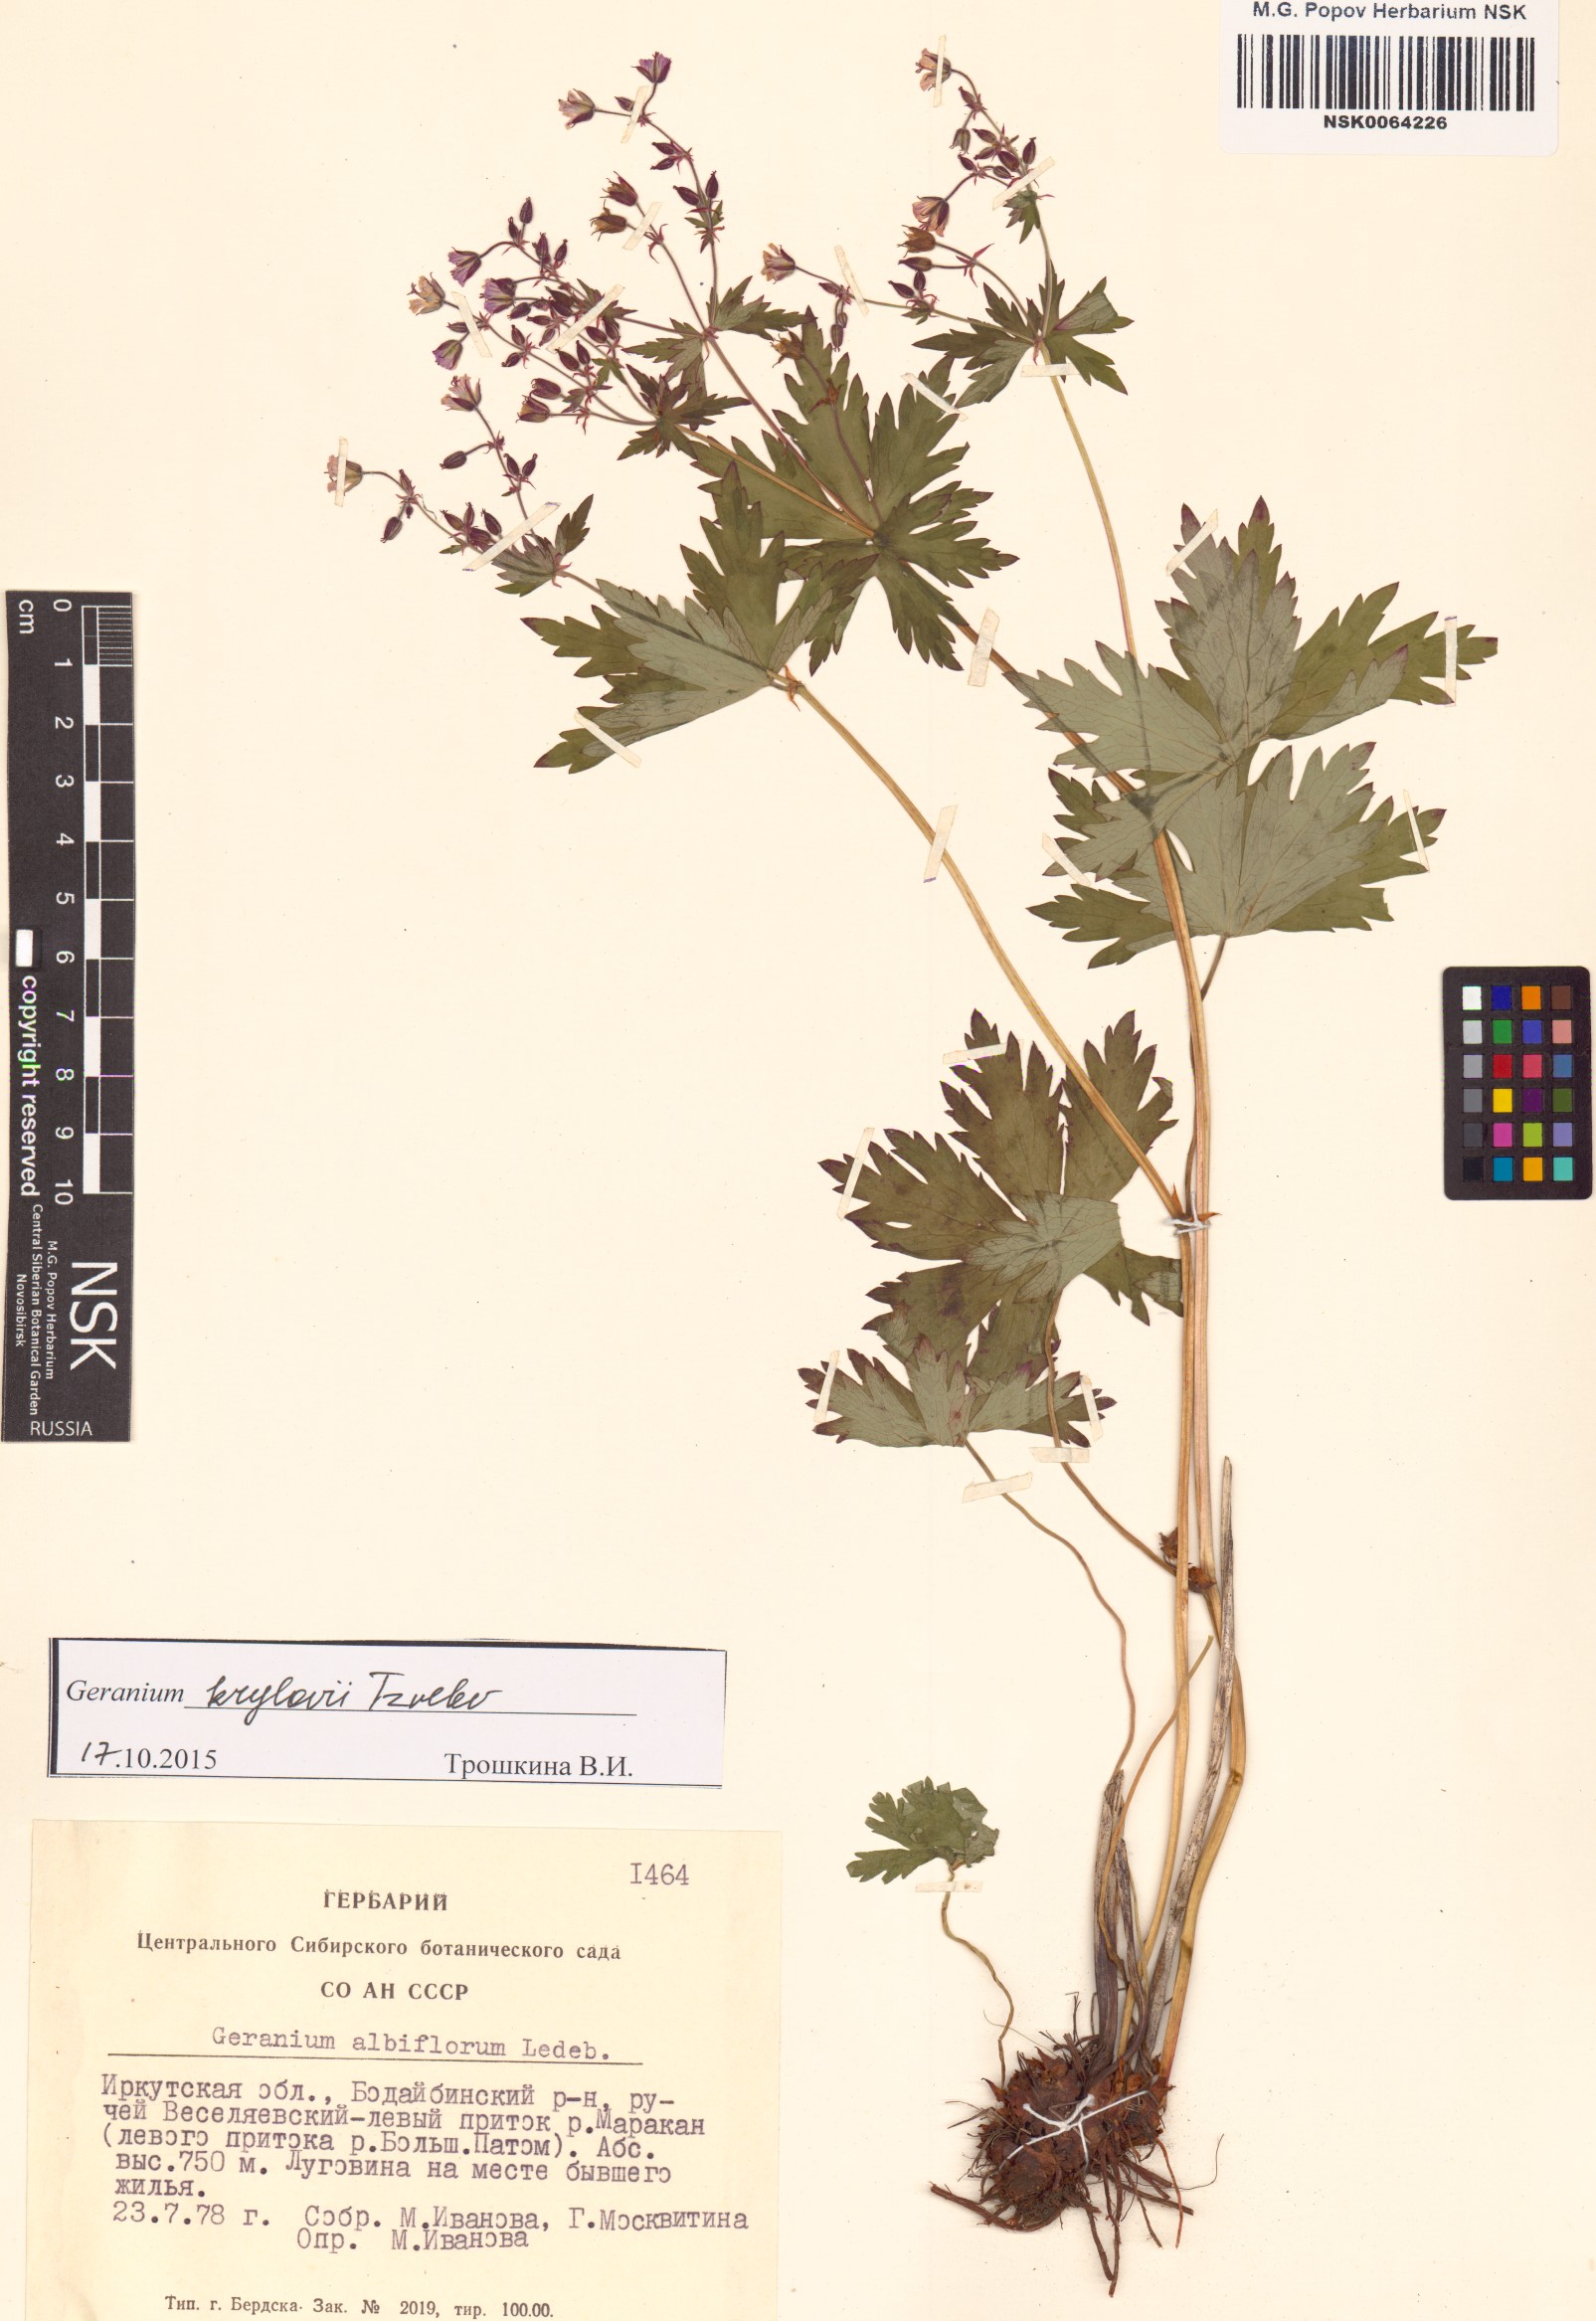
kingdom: Plantae
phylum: Tracheophyta
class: Magnoliopsida
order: Geraniales
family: Geraniaceae
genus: Geranium
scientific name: Geranium sylvaticum
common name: Wood crane's-bill
